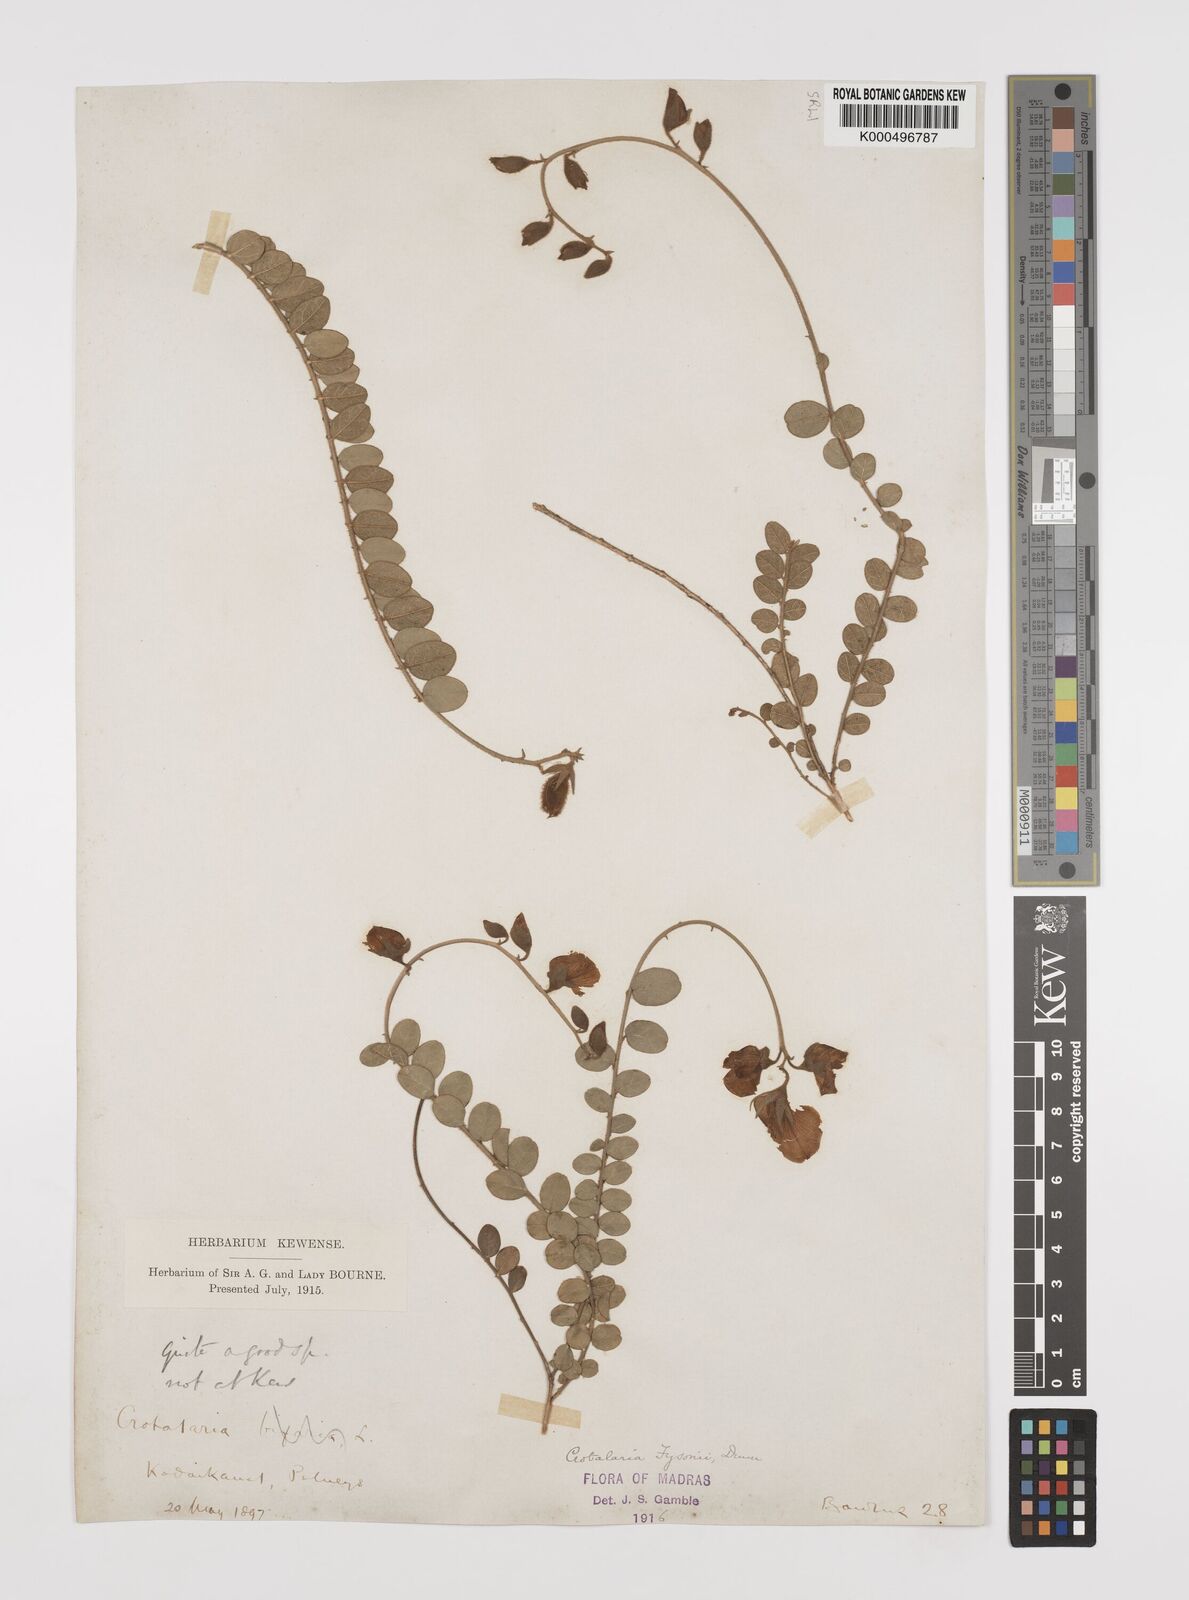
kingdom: Plantae
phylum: Tracheophyta
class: Magnoliopsida
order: Fabales
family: Fabaceae
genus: Crotalaria
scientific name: Crotalaria fysonii
